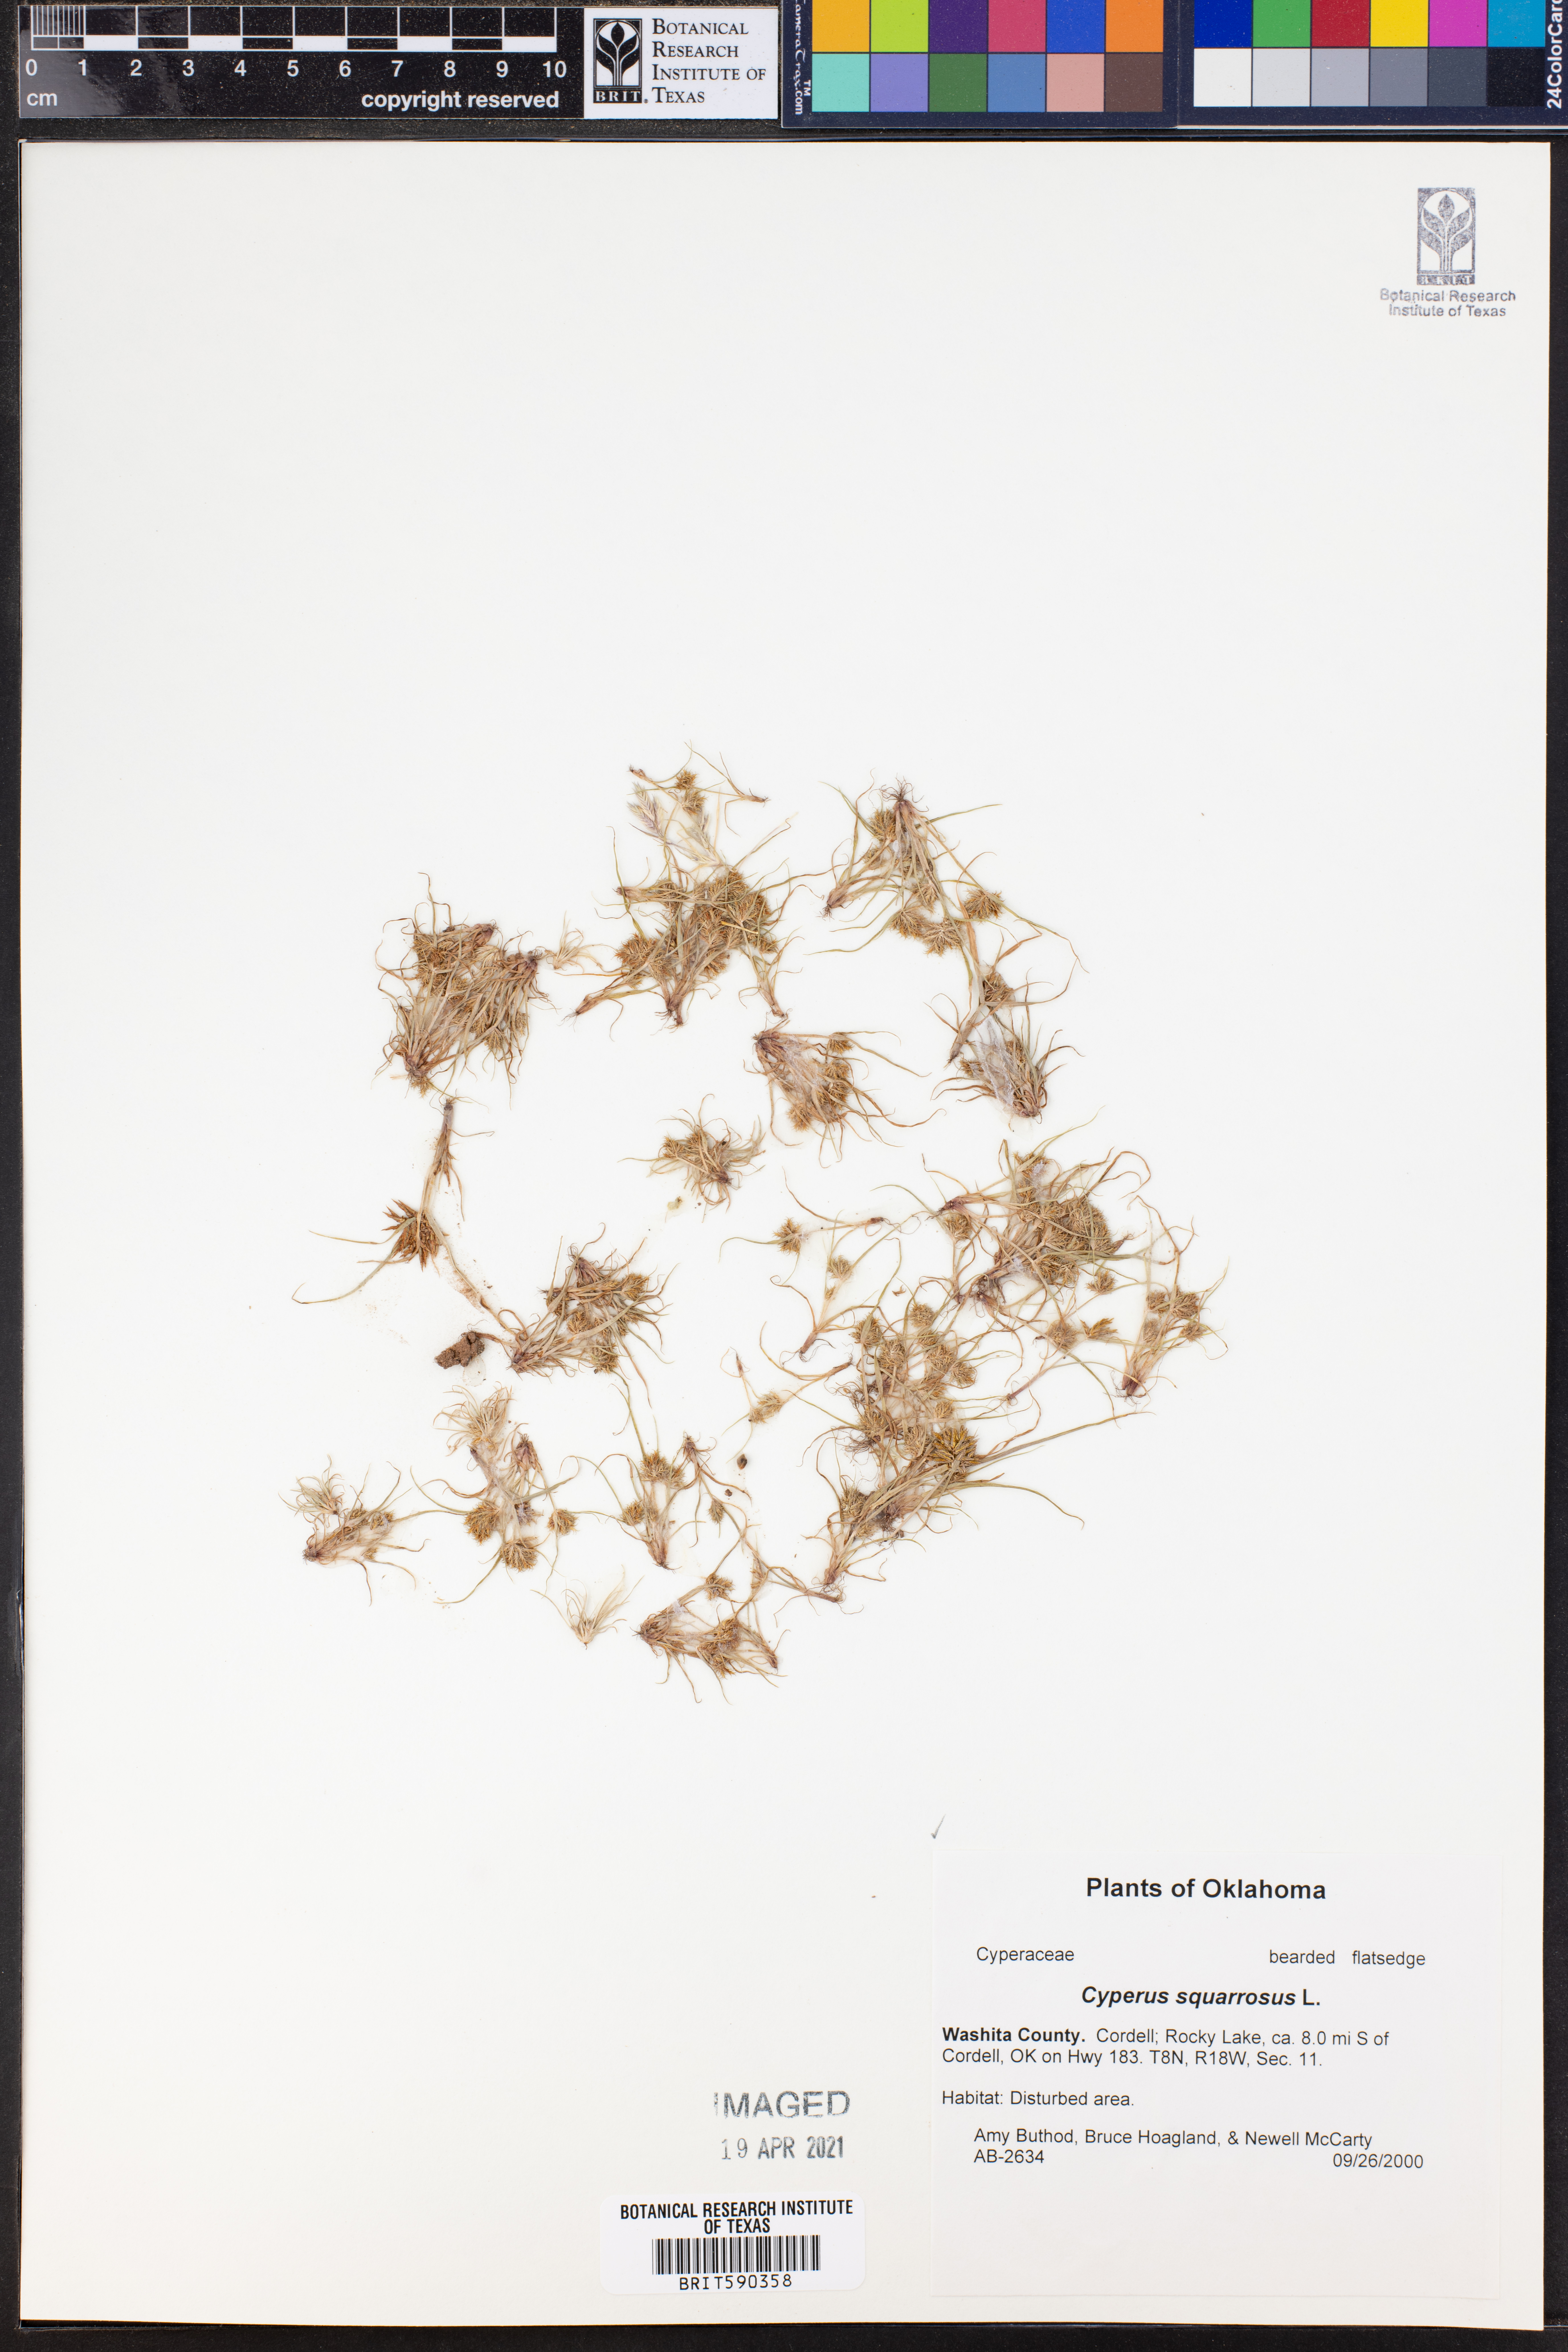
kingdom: Plantae
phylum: Tracheophyta
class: Liliopsida
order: Poales
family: Cyperaceae
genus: Cyperus
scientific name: Cyperus squarrosus
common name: Awned cyperus
